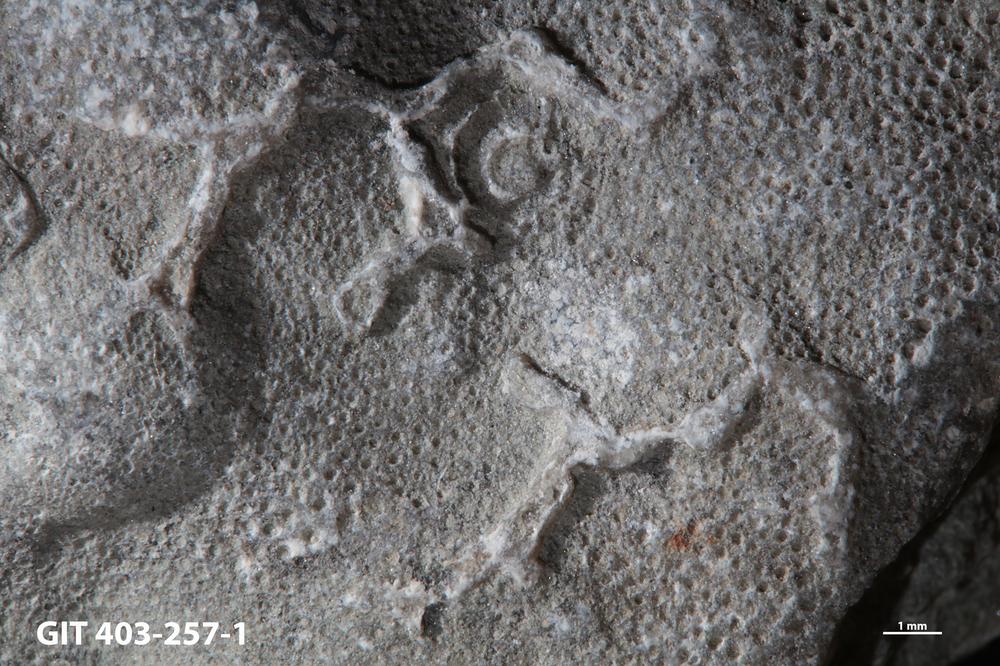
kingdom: Animalia
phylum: Cnidaria
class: Anthozoa
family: Auloporidae
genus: Aulopora
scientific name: Aulopora
